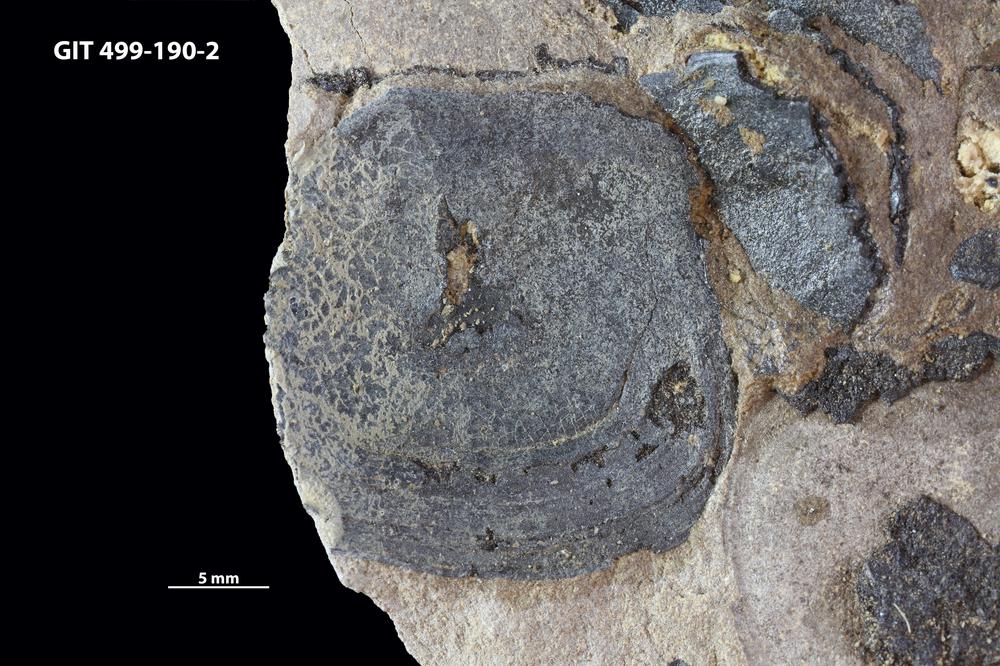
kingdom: Animalia
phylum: Chordata
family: Holoptychiidae
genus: Glyptolepis
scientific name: Glyptolepis
